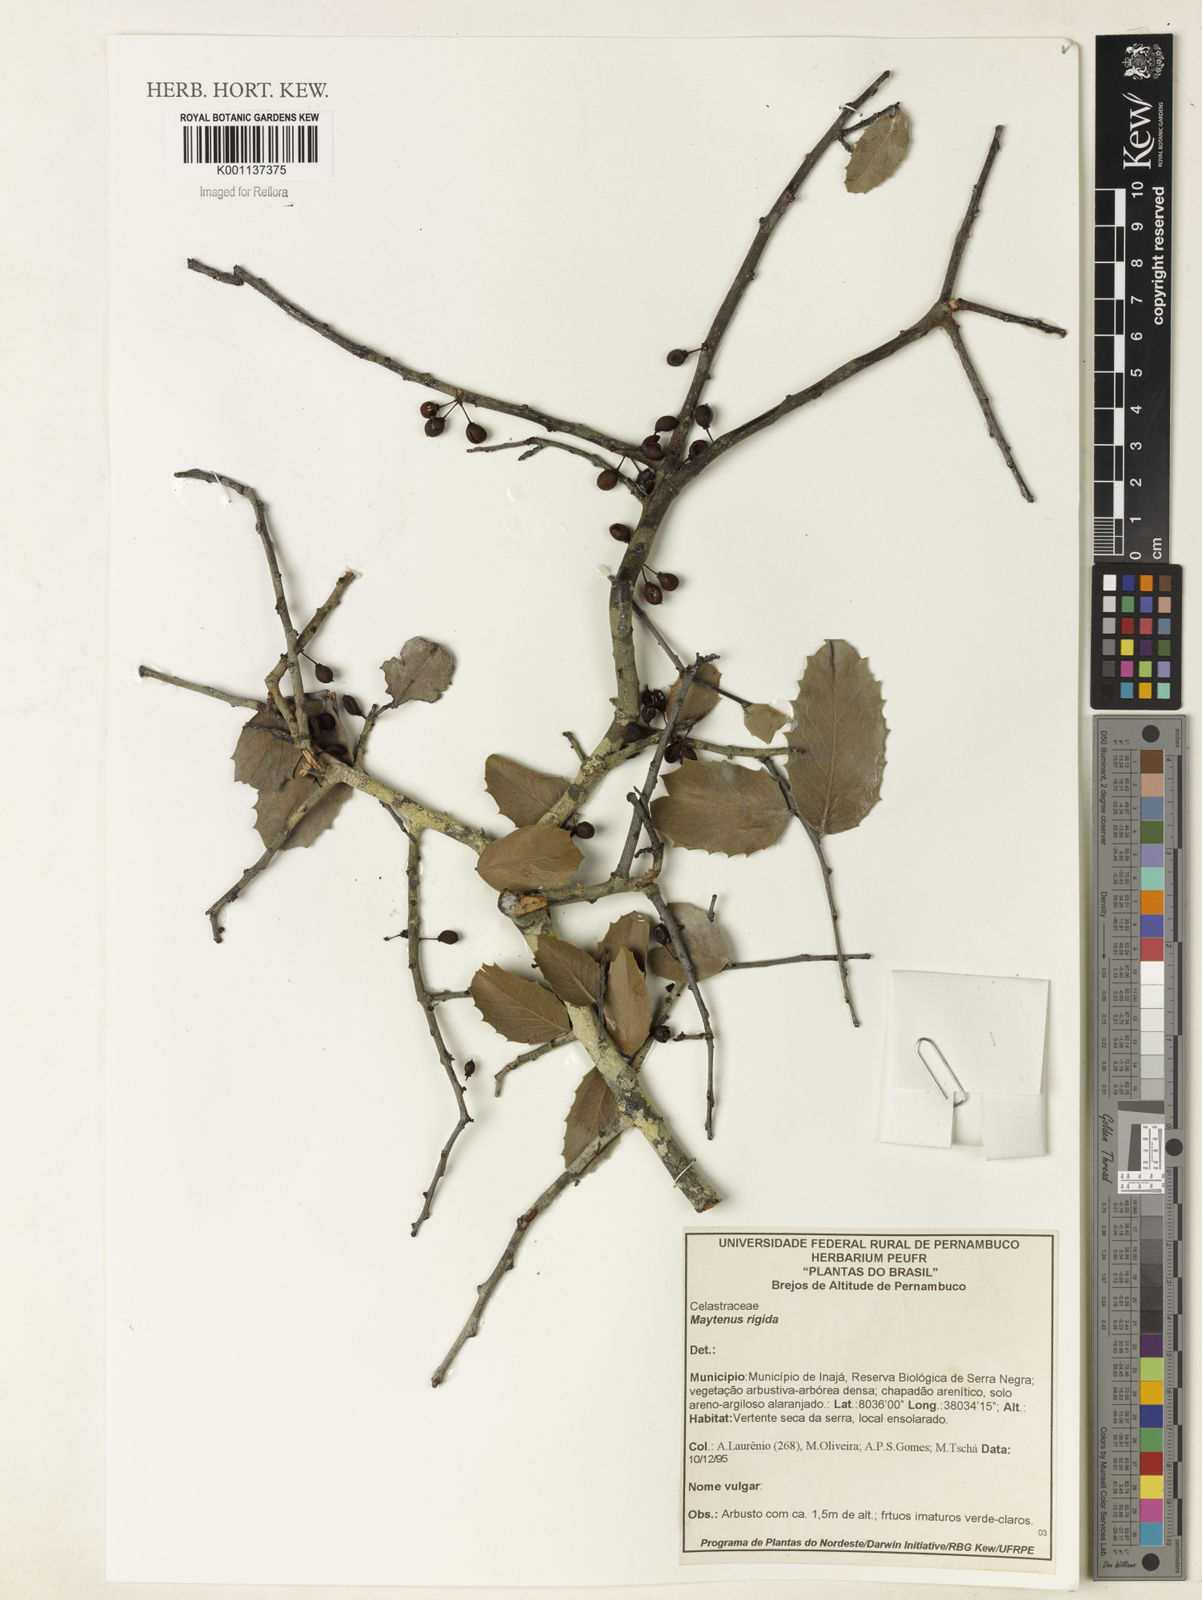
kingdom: Plantae
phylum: Tracheophyta
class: Magnoliopsida
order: Celastrales
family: Celastraceae
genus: Monteverdia
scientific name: Monteverdia rigida
